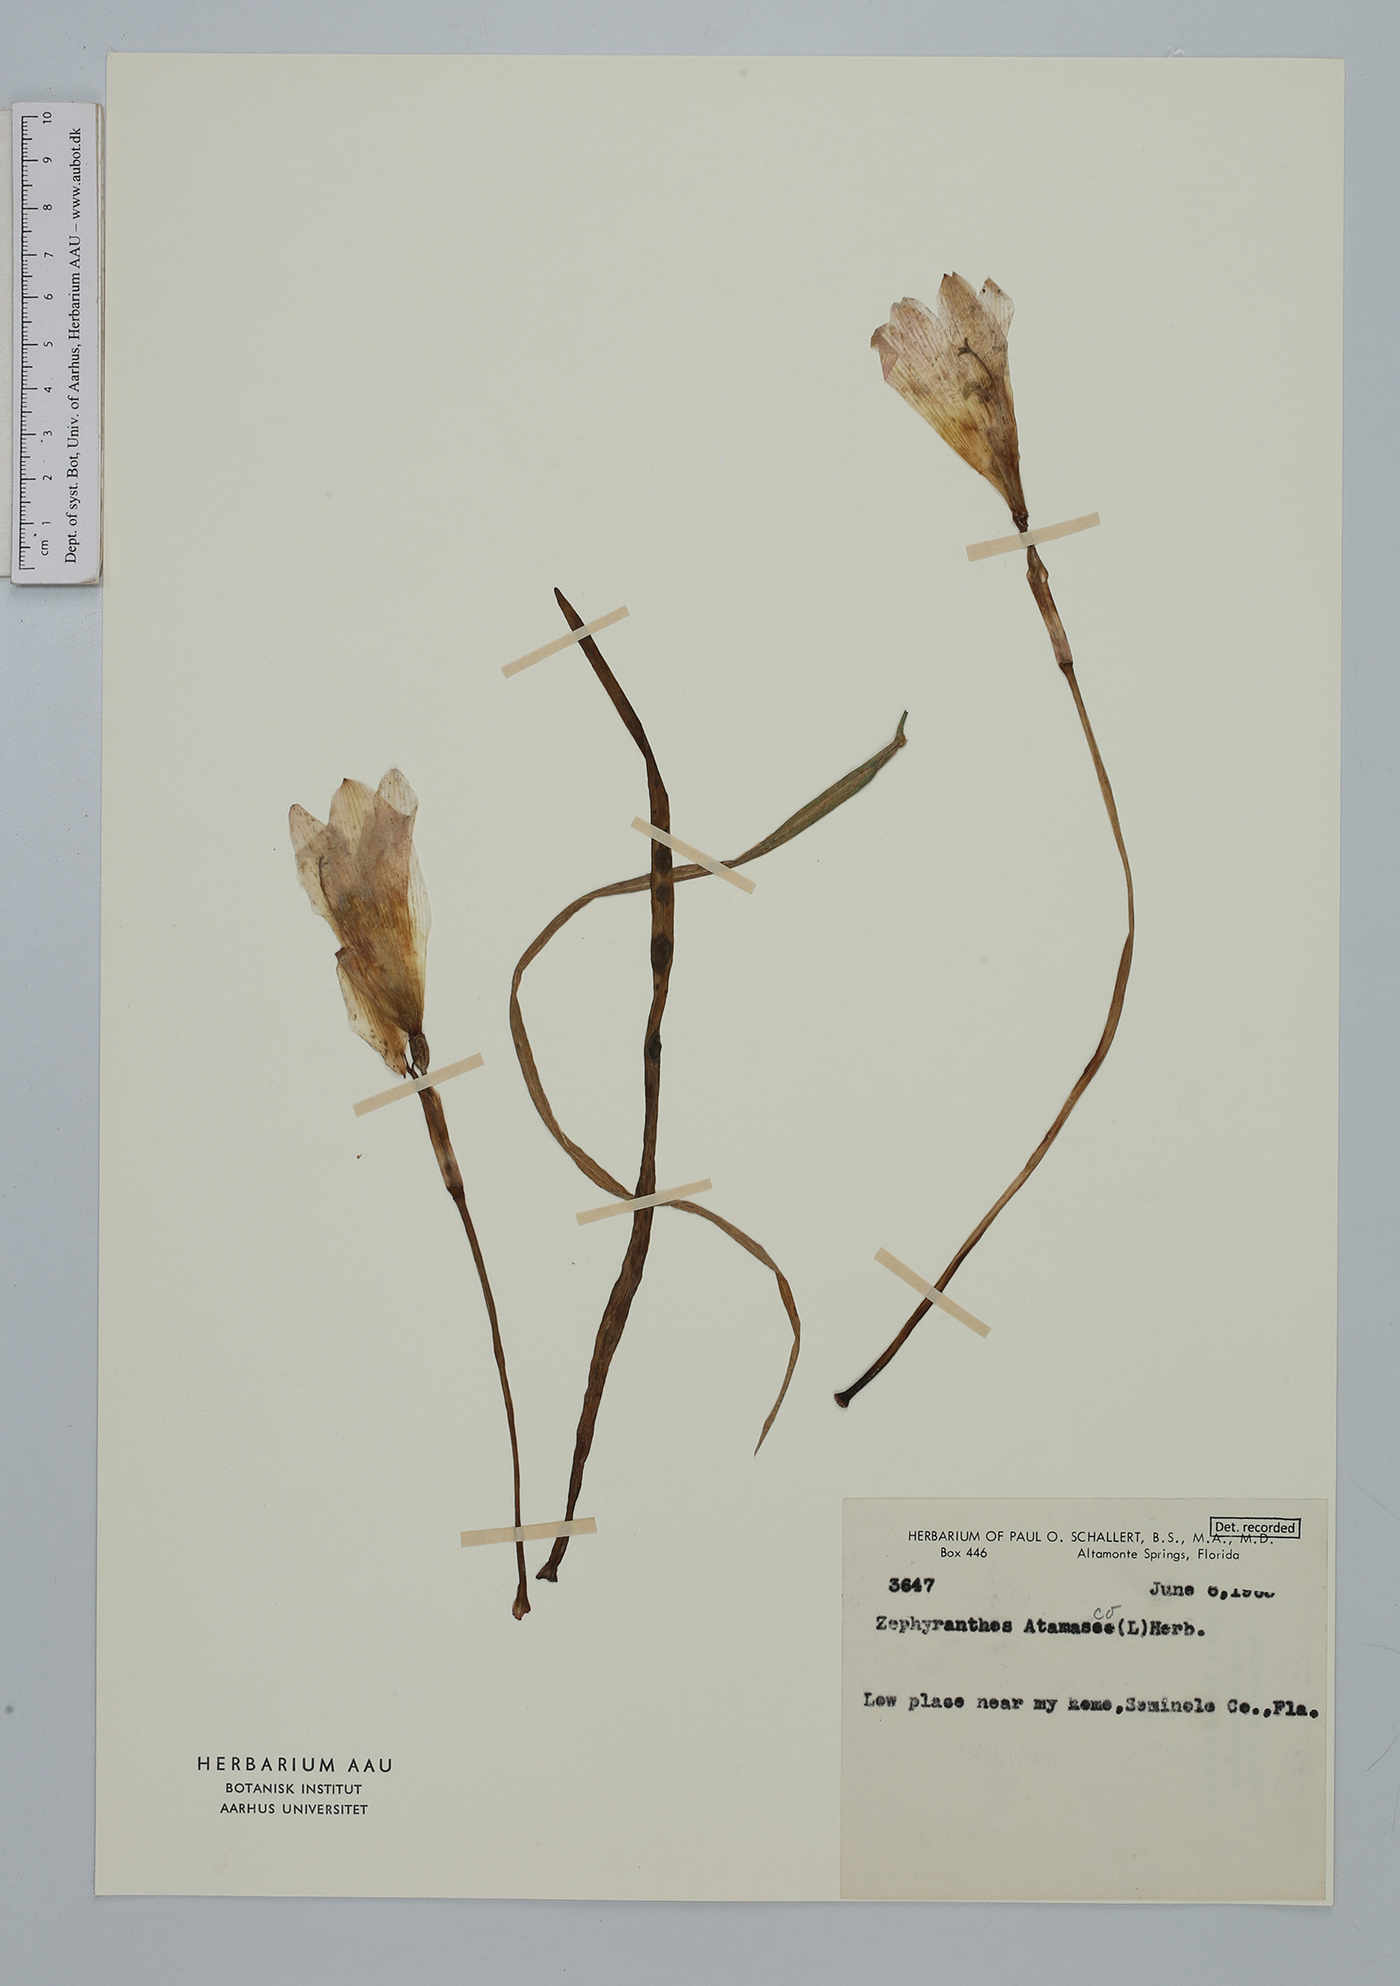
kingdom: Plantae
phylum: Tracheophyta
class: Liliopsida
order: Asparagales
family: Amaryllidaceae
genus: Zephyranthes
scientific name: Zephyranthes atamasco
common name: Atamasco lily
